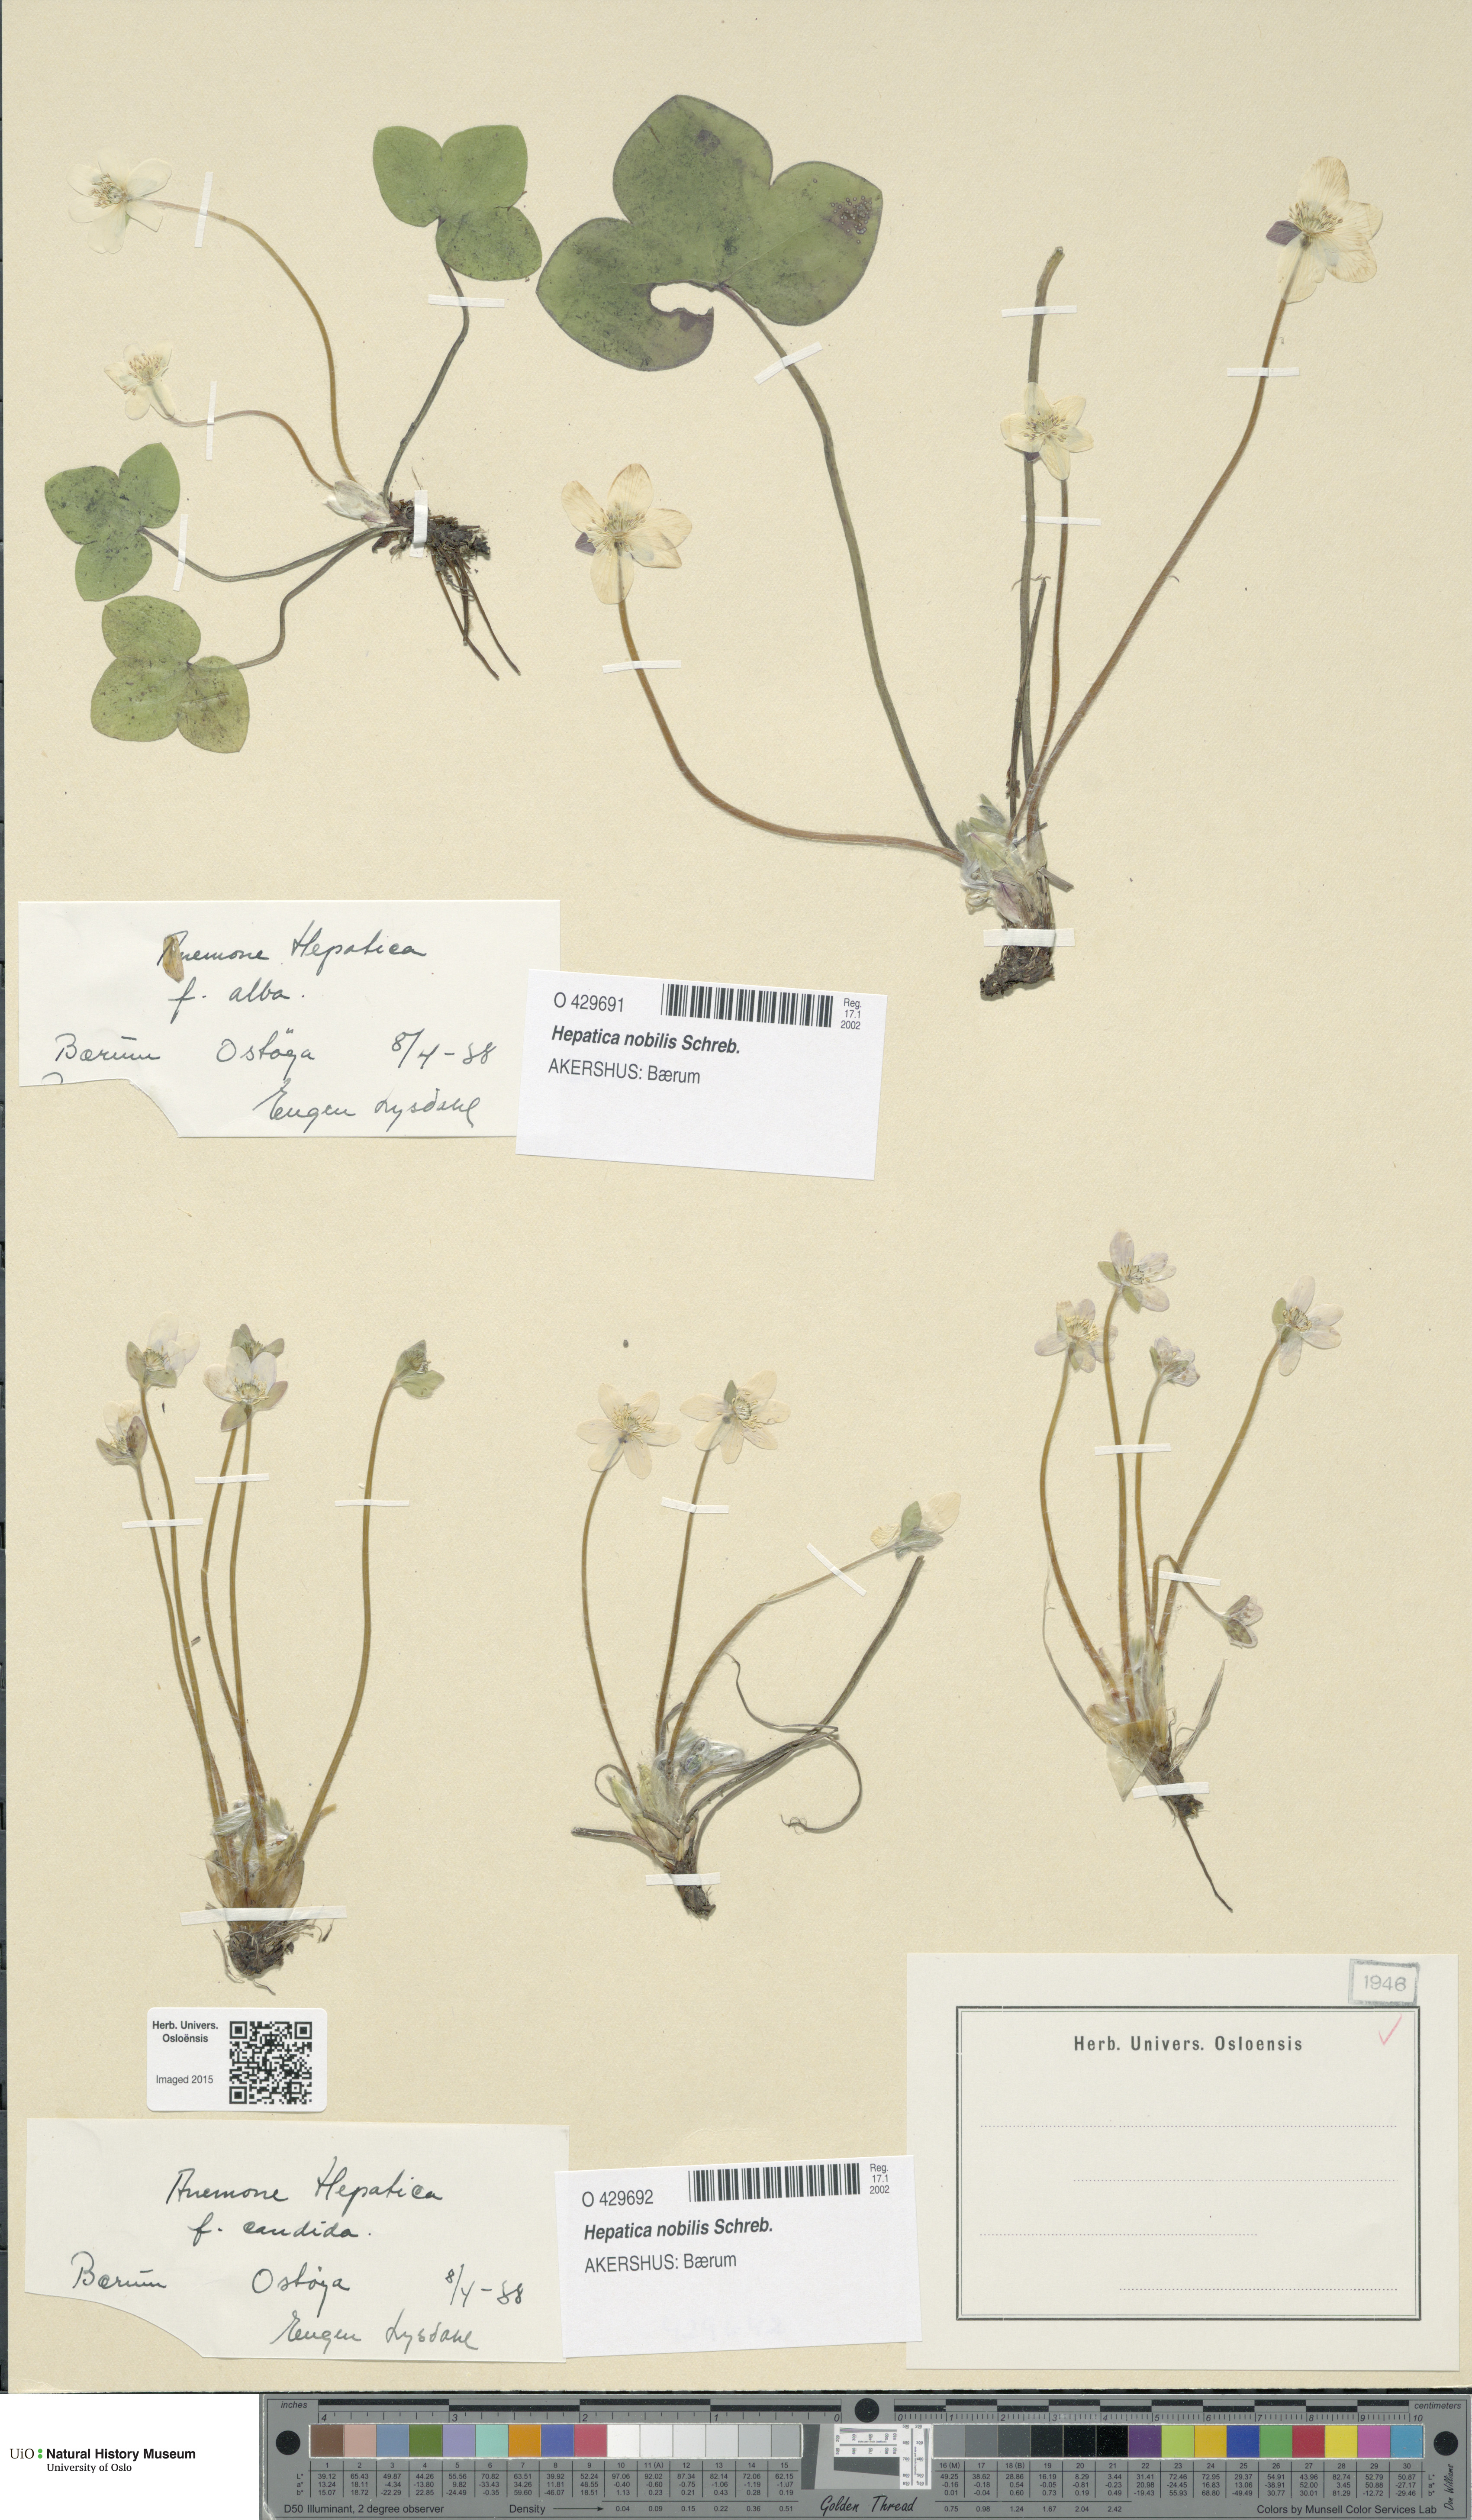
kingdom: Plantae
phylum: Tracheophyta
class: Magnoliopsida
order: Ranunculales
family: Ranunculaceae
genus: Hepatica
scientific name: Hepatica nobilis
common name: Liverleaf
